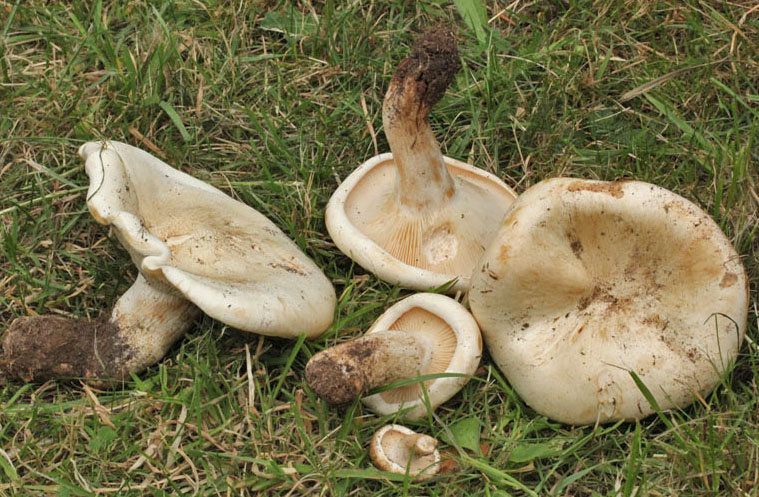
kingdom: Fungi
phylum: Basidiomycota
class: Agaricomycetes
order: Agaricales
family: Tricholomataceae
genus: Aspropaxillus
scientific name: Aspropaxillus giganteus
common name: kæmpe-tragtridderhat
